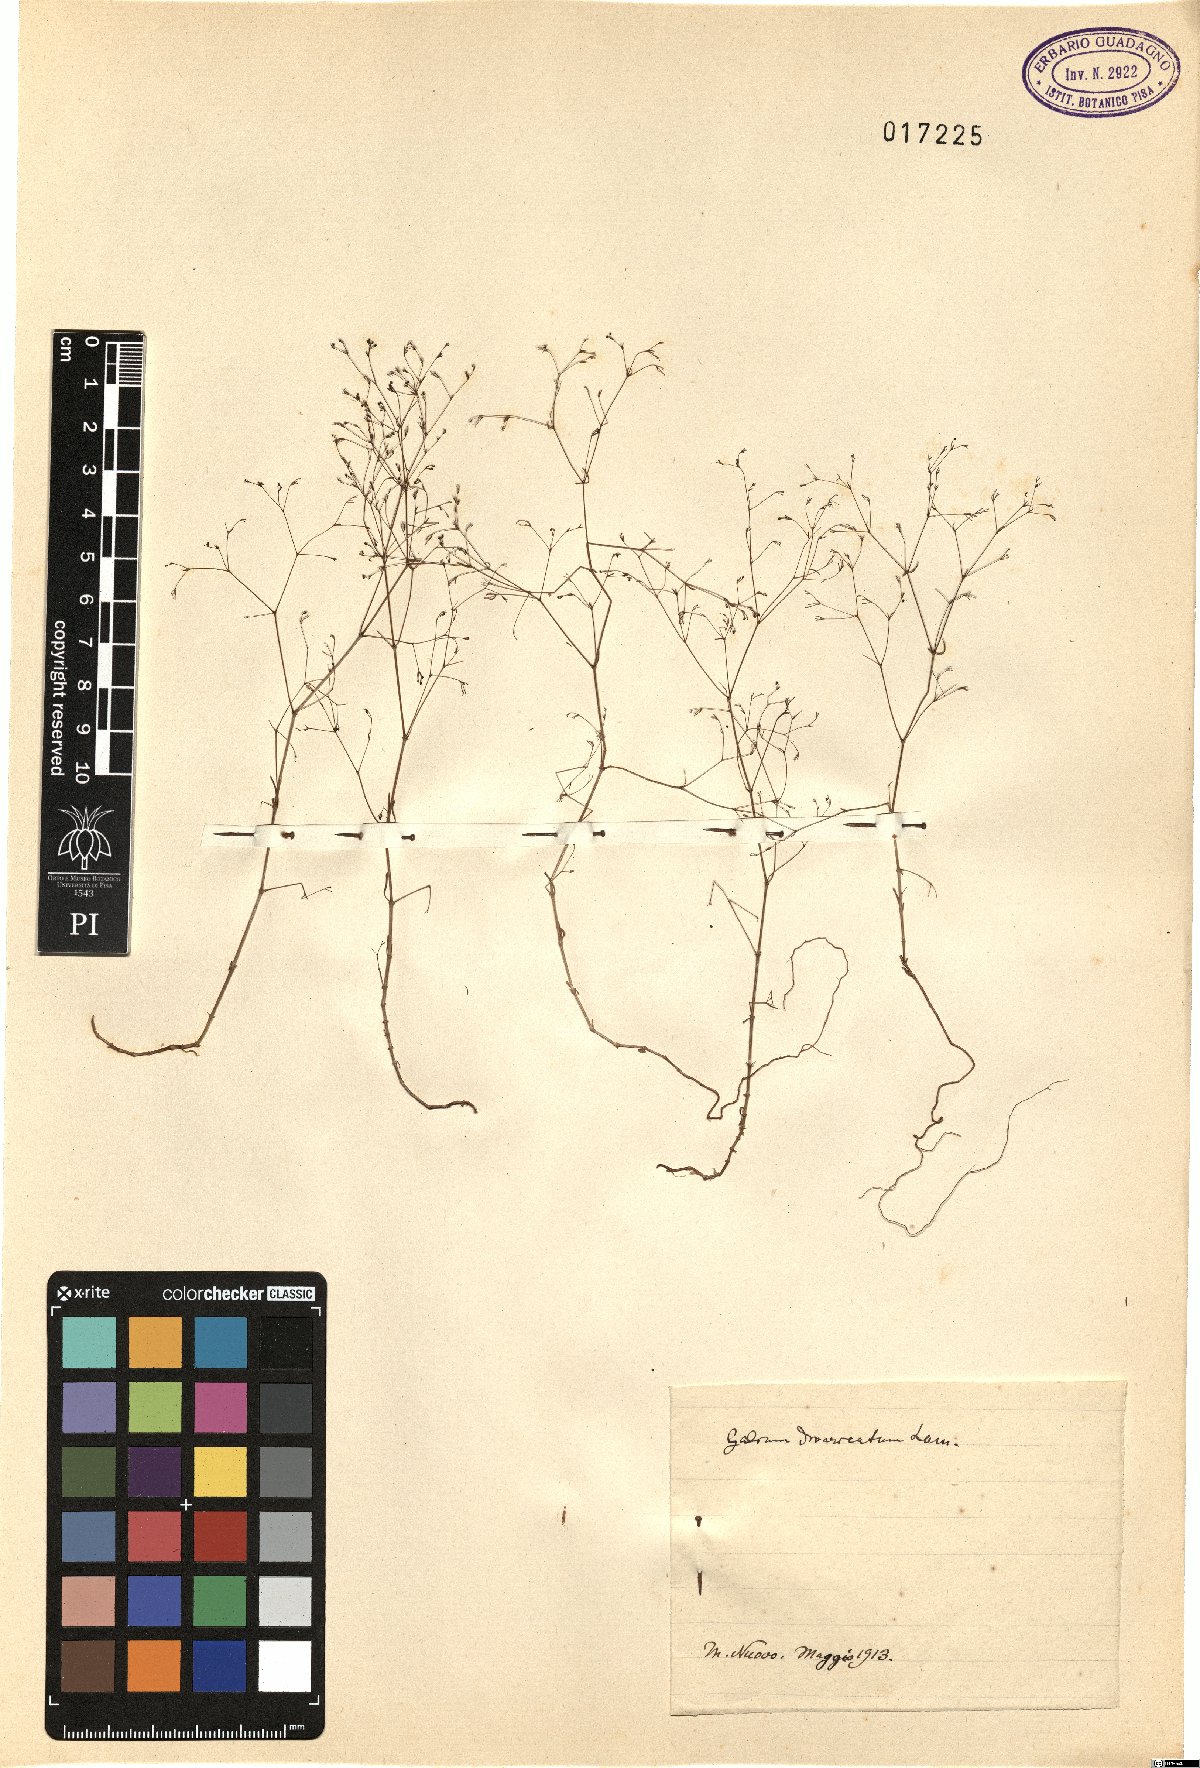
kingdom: Plantae
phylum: Tracheophyta
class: Magnoliopsida
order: Gentianales
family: Rubiaceae
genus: Galium
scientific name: Galium divaricatum
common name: Lamarck's bedstraw
